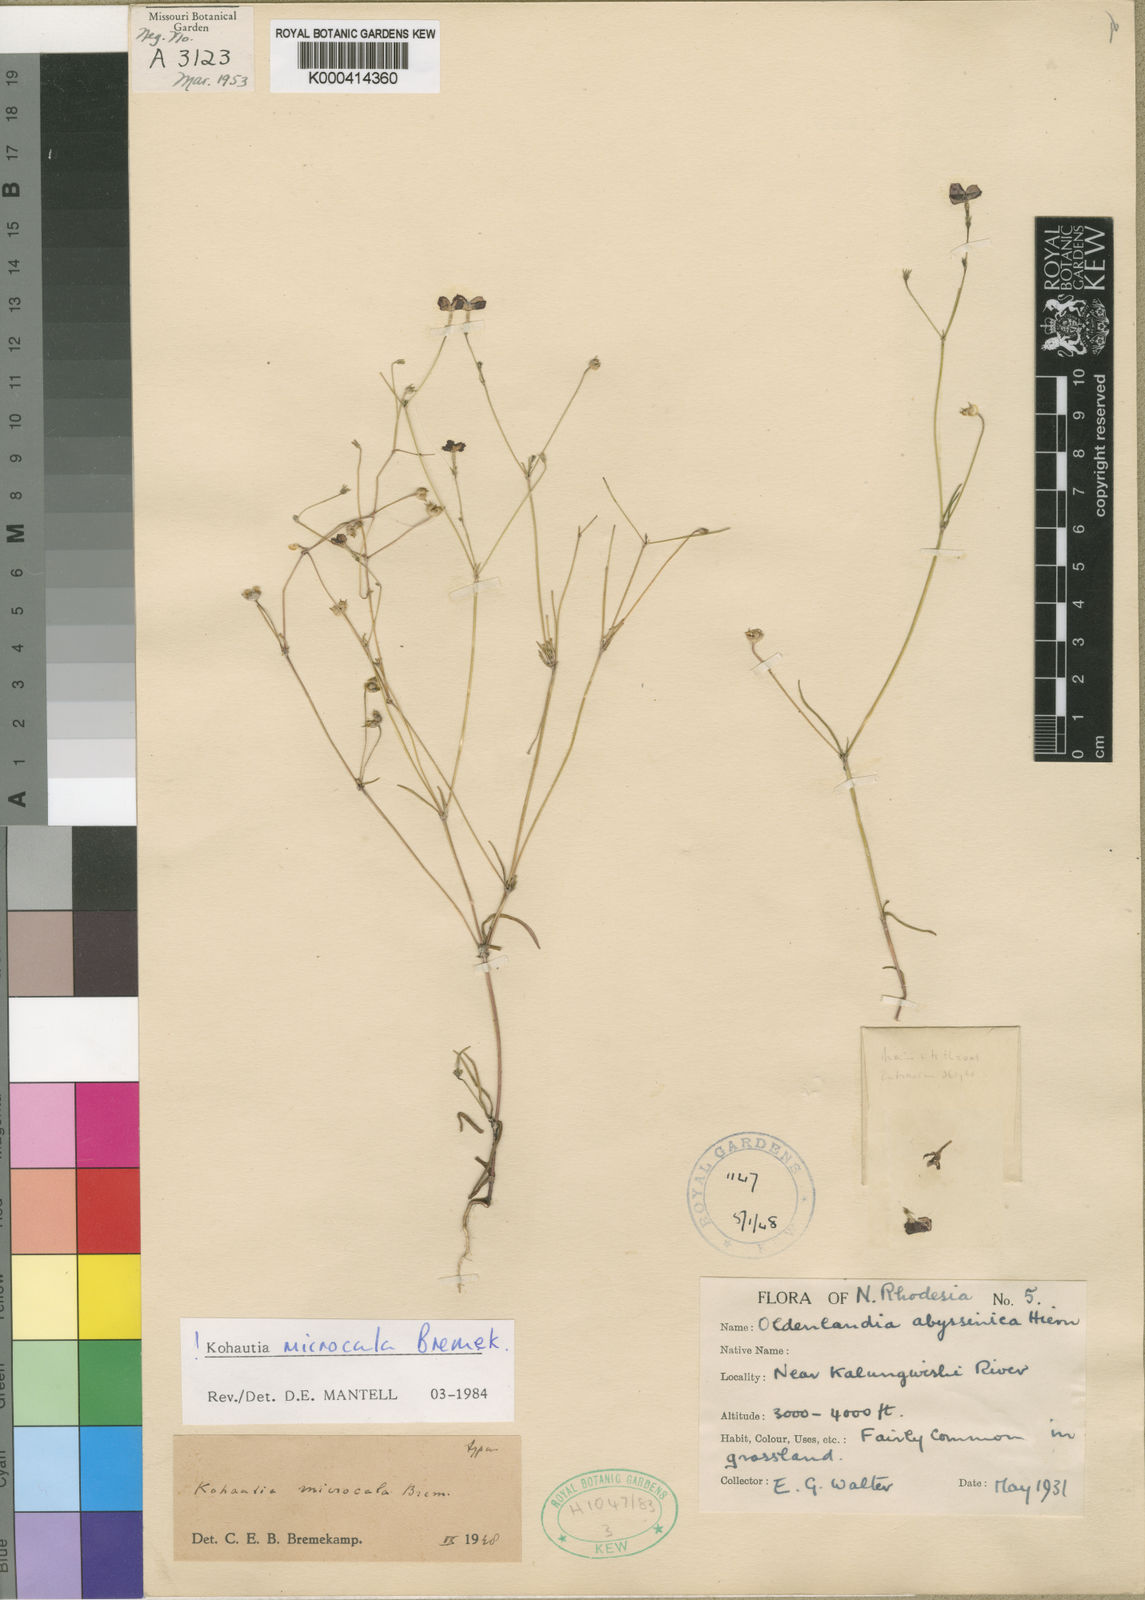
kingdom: Plantae
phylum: Tracheophyta
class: Magnoliopsida
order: Gentianales
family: Rubiaceae
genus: Cordylostigma
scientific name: Cordylostigma microcala
